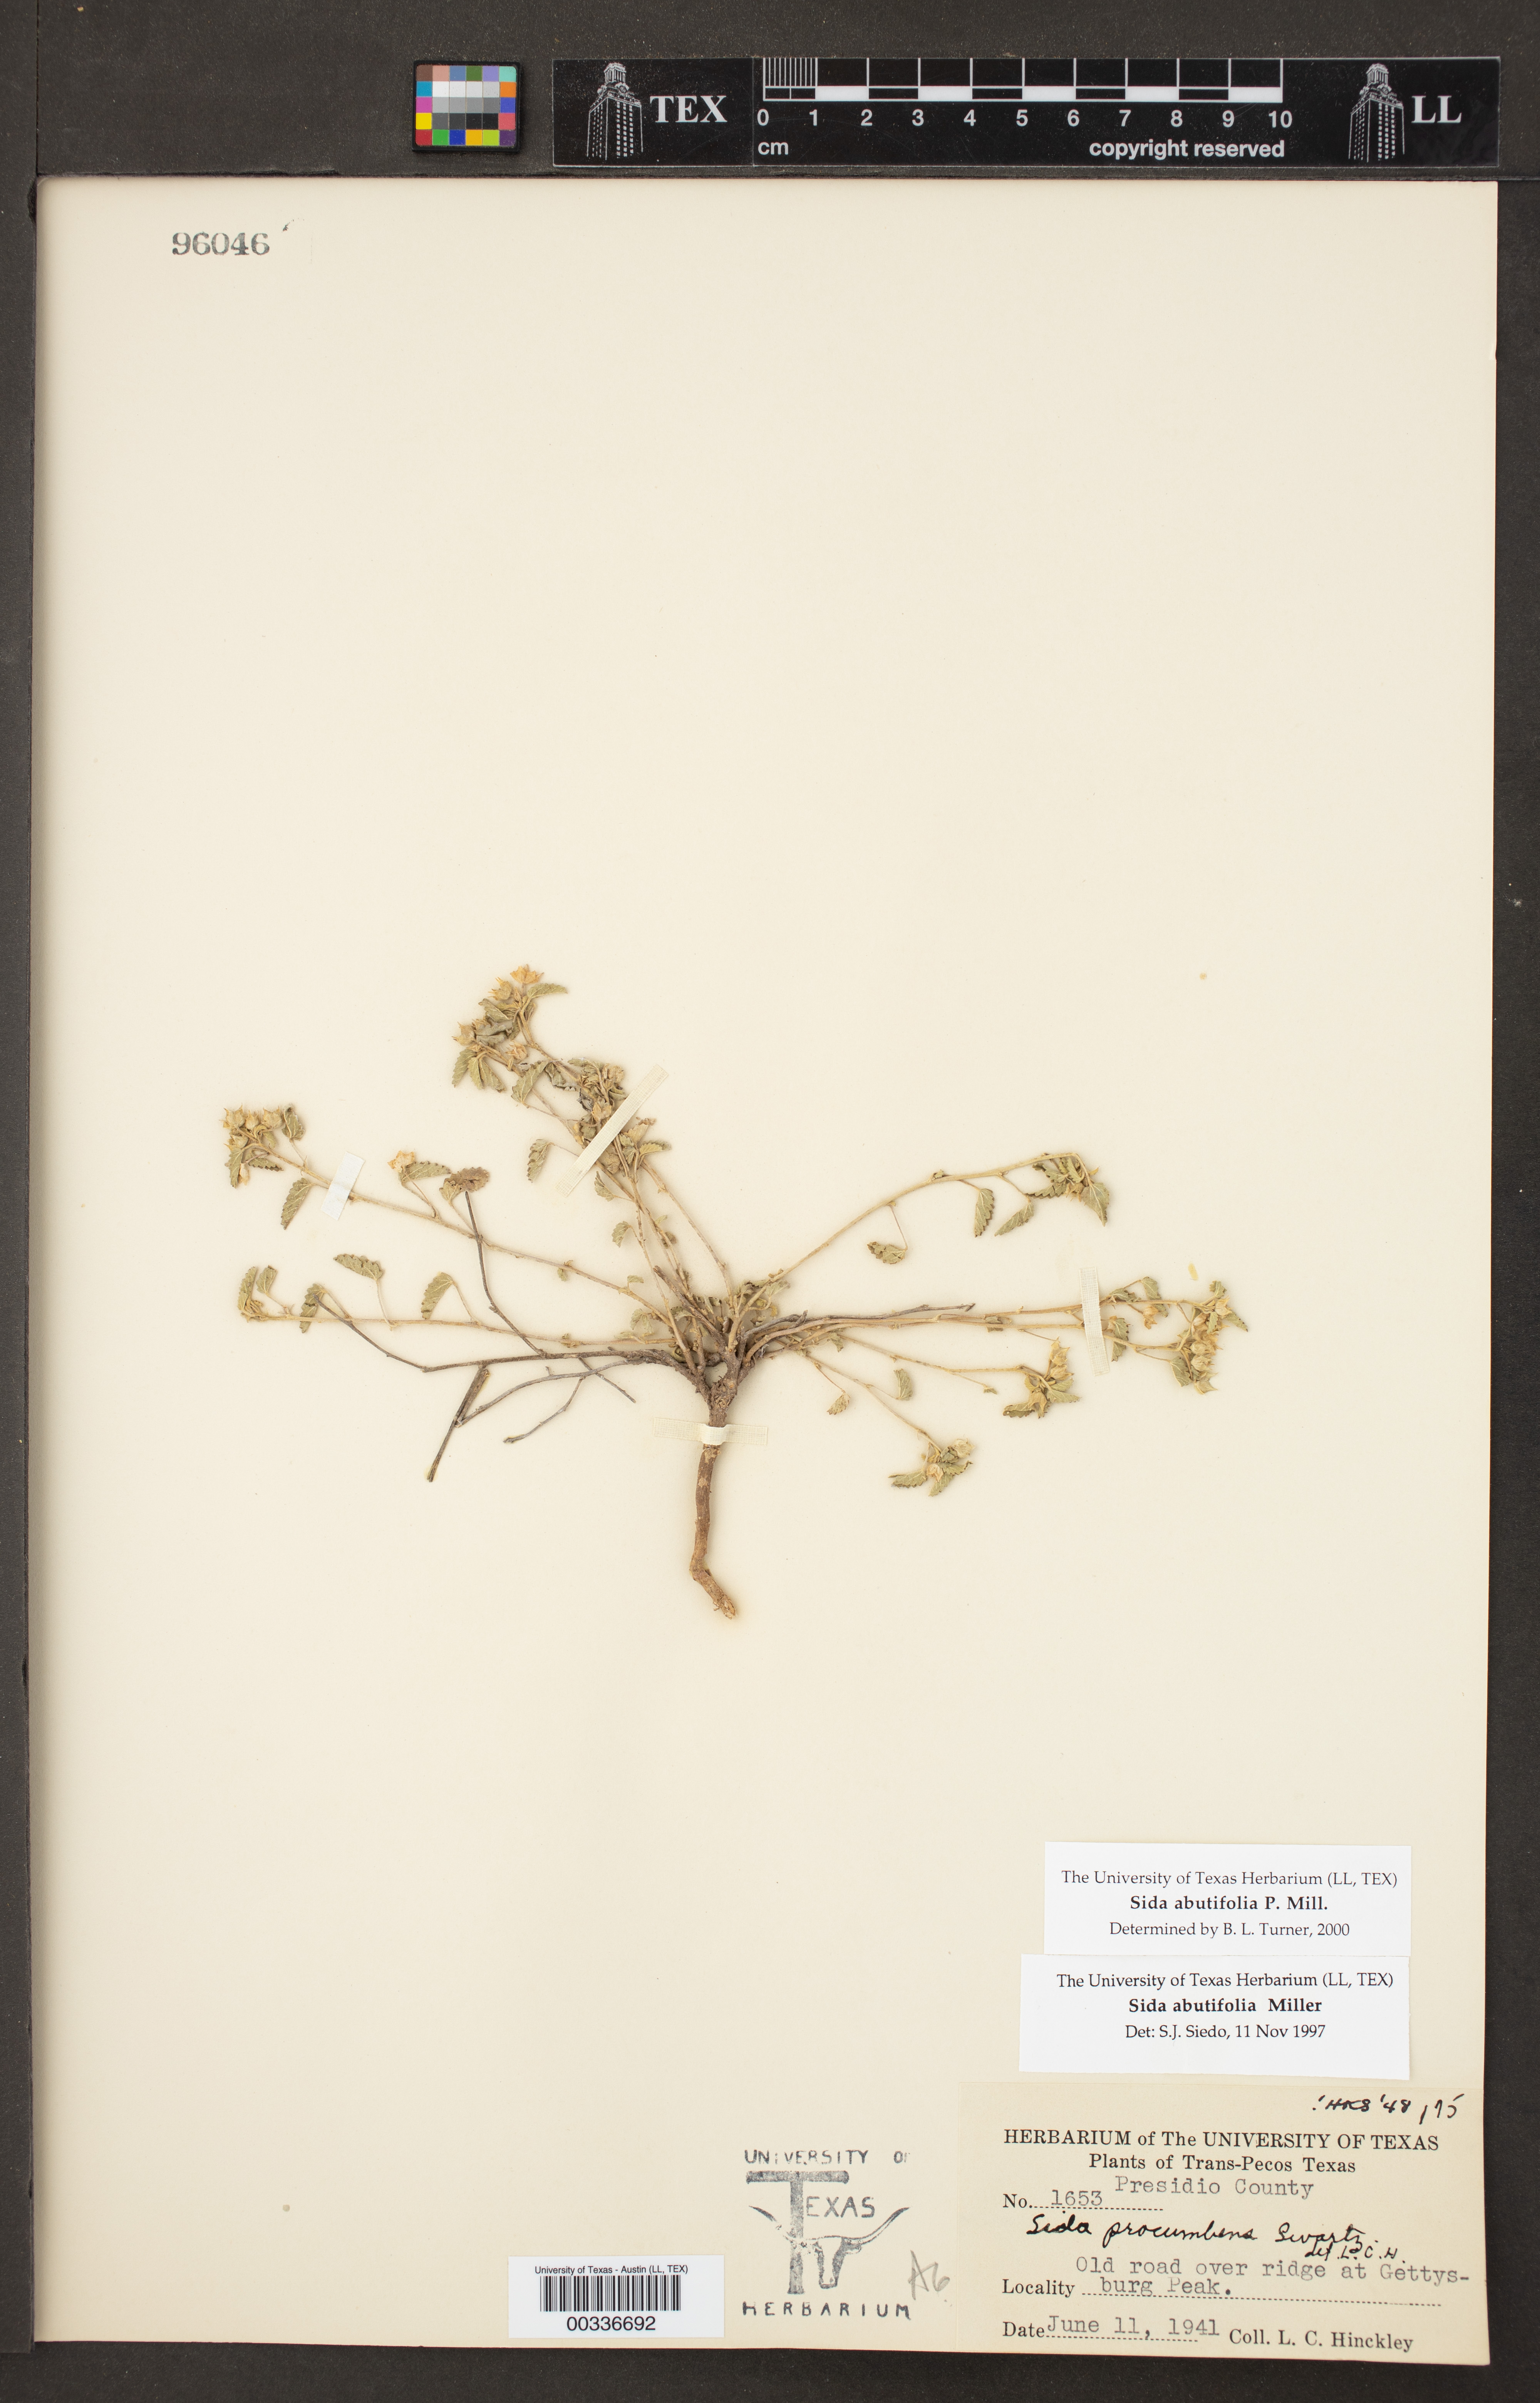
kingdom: Plantae
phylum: Tracheophyta
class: Magnoliopsida
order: Malvales
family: Malvaceae
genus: Sida
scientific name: Sida abutilifolia
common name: Spreading fanpetals
